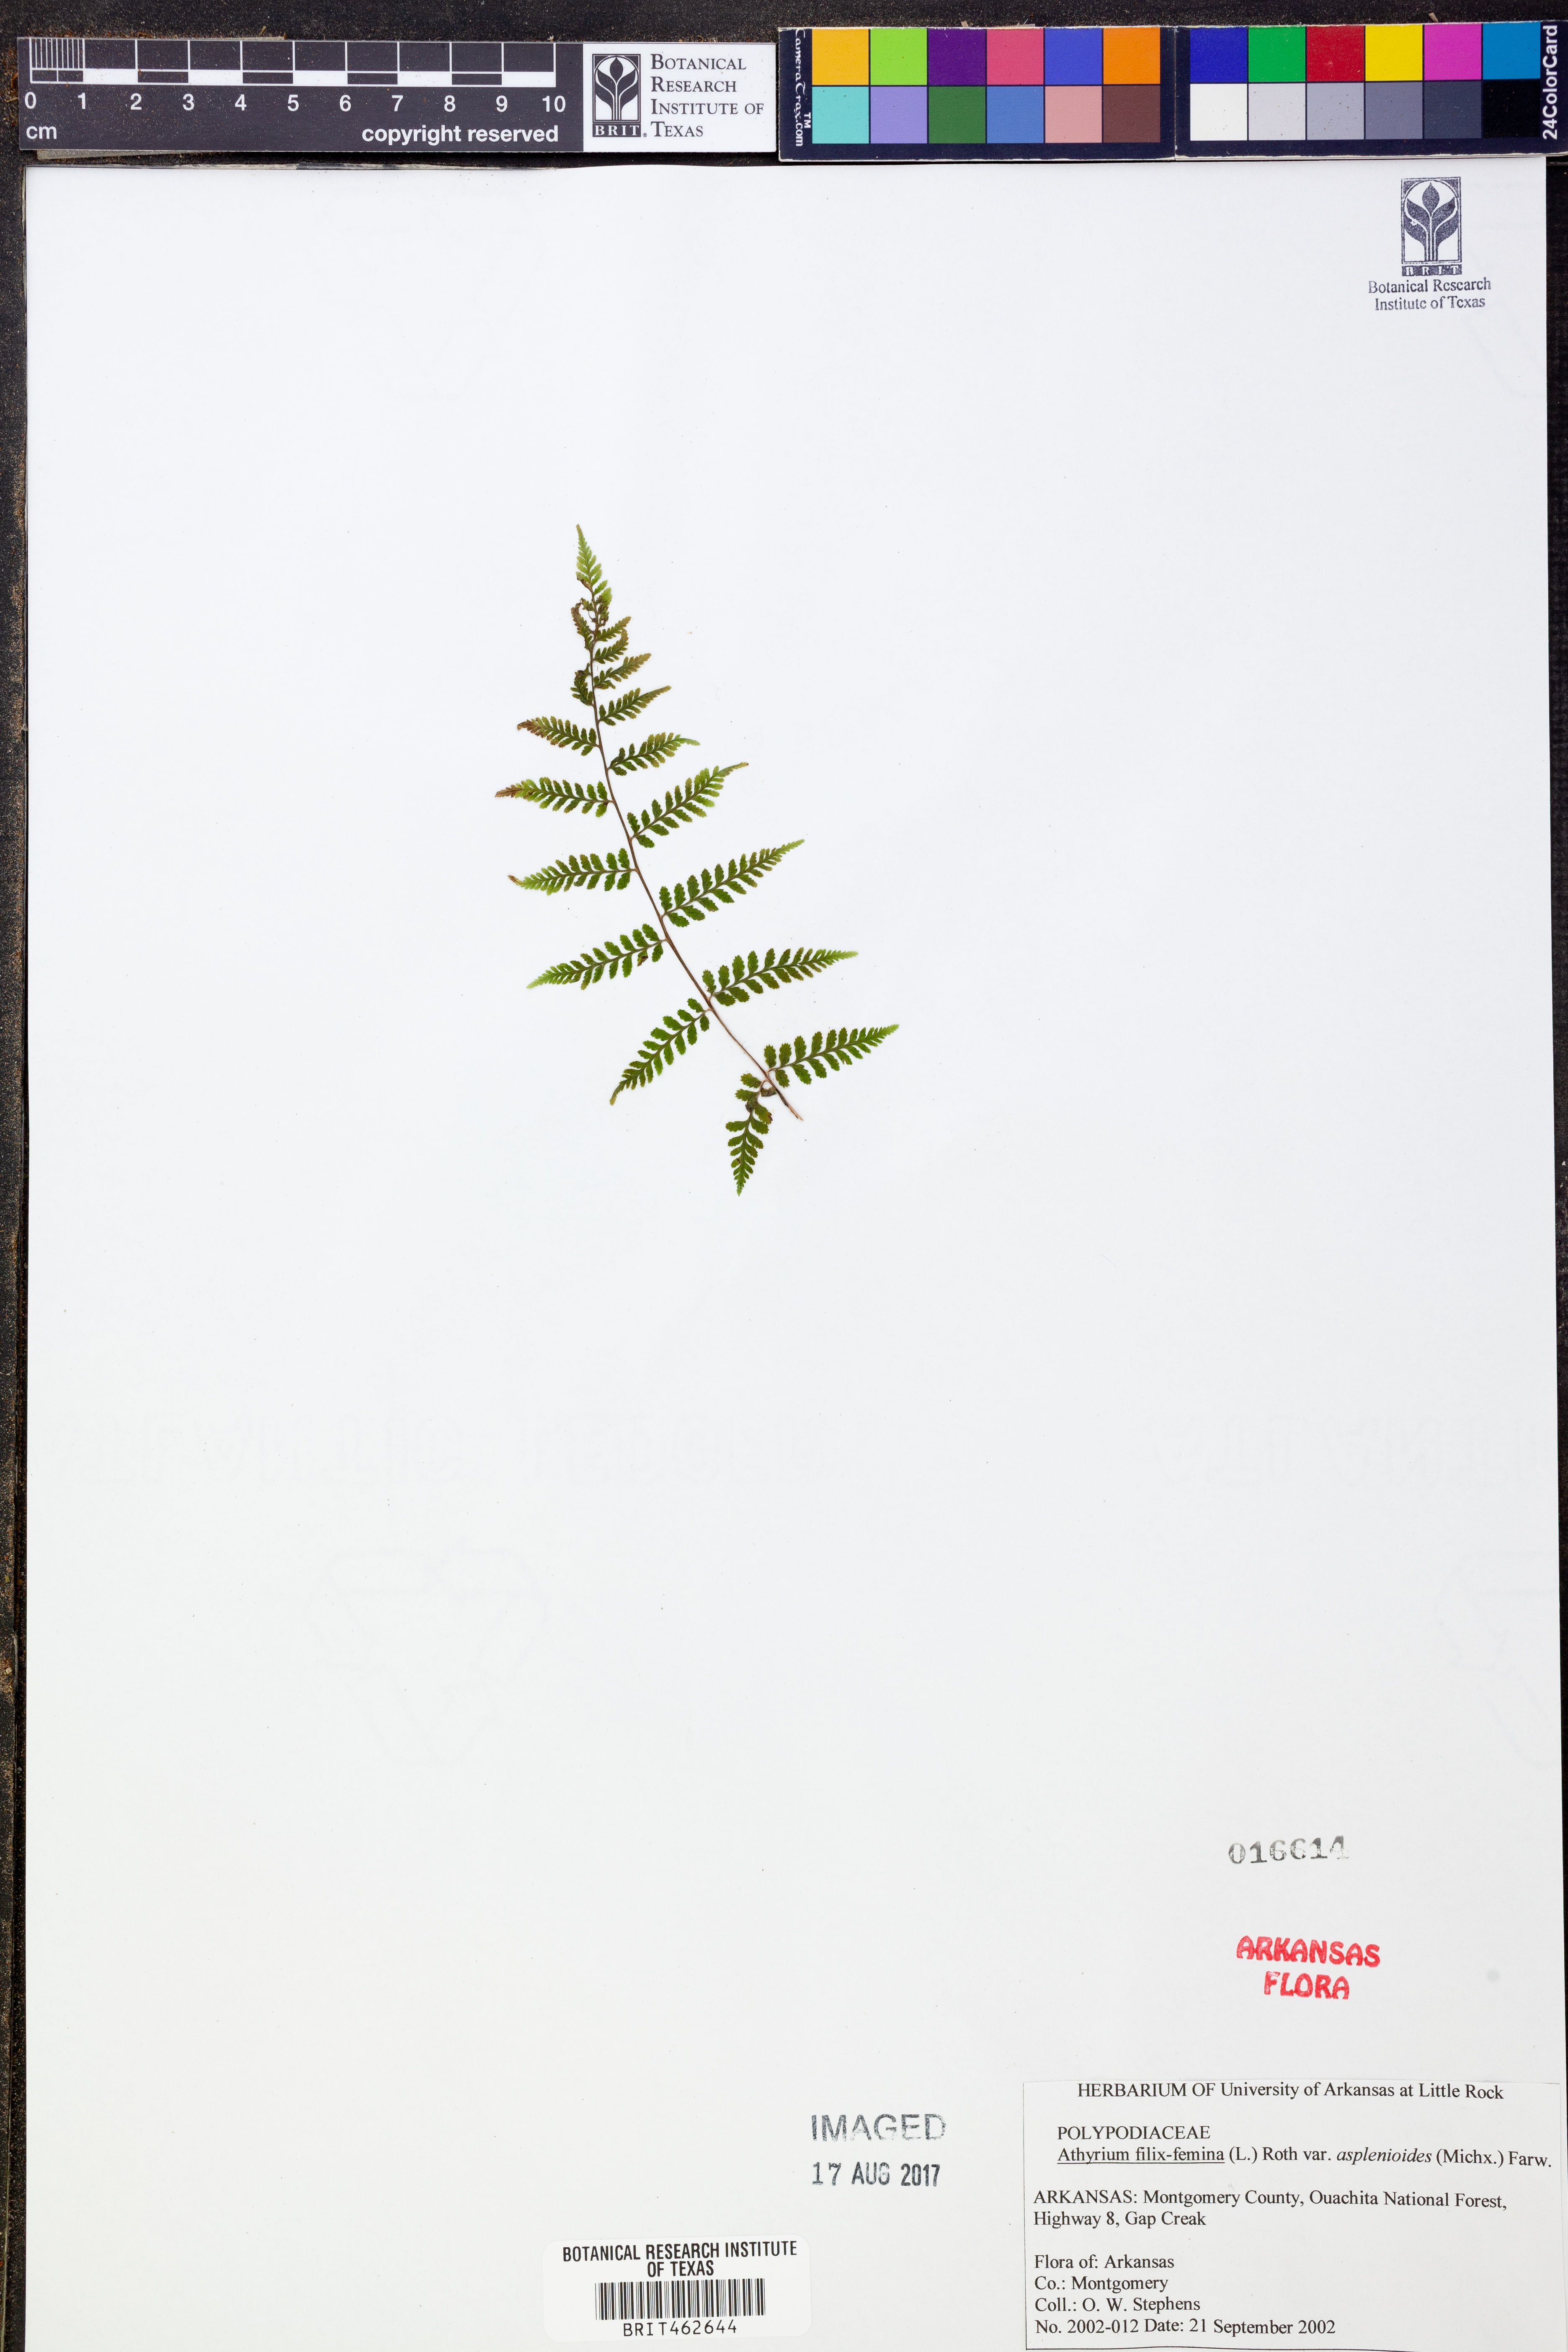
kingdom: Plantae
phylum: Tracheophyta
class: Polypodiopsida
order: Polypodiales
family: Athyriaceae
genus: Athyrium
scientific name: Athyrium asplenioides
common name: Southern lady fern
